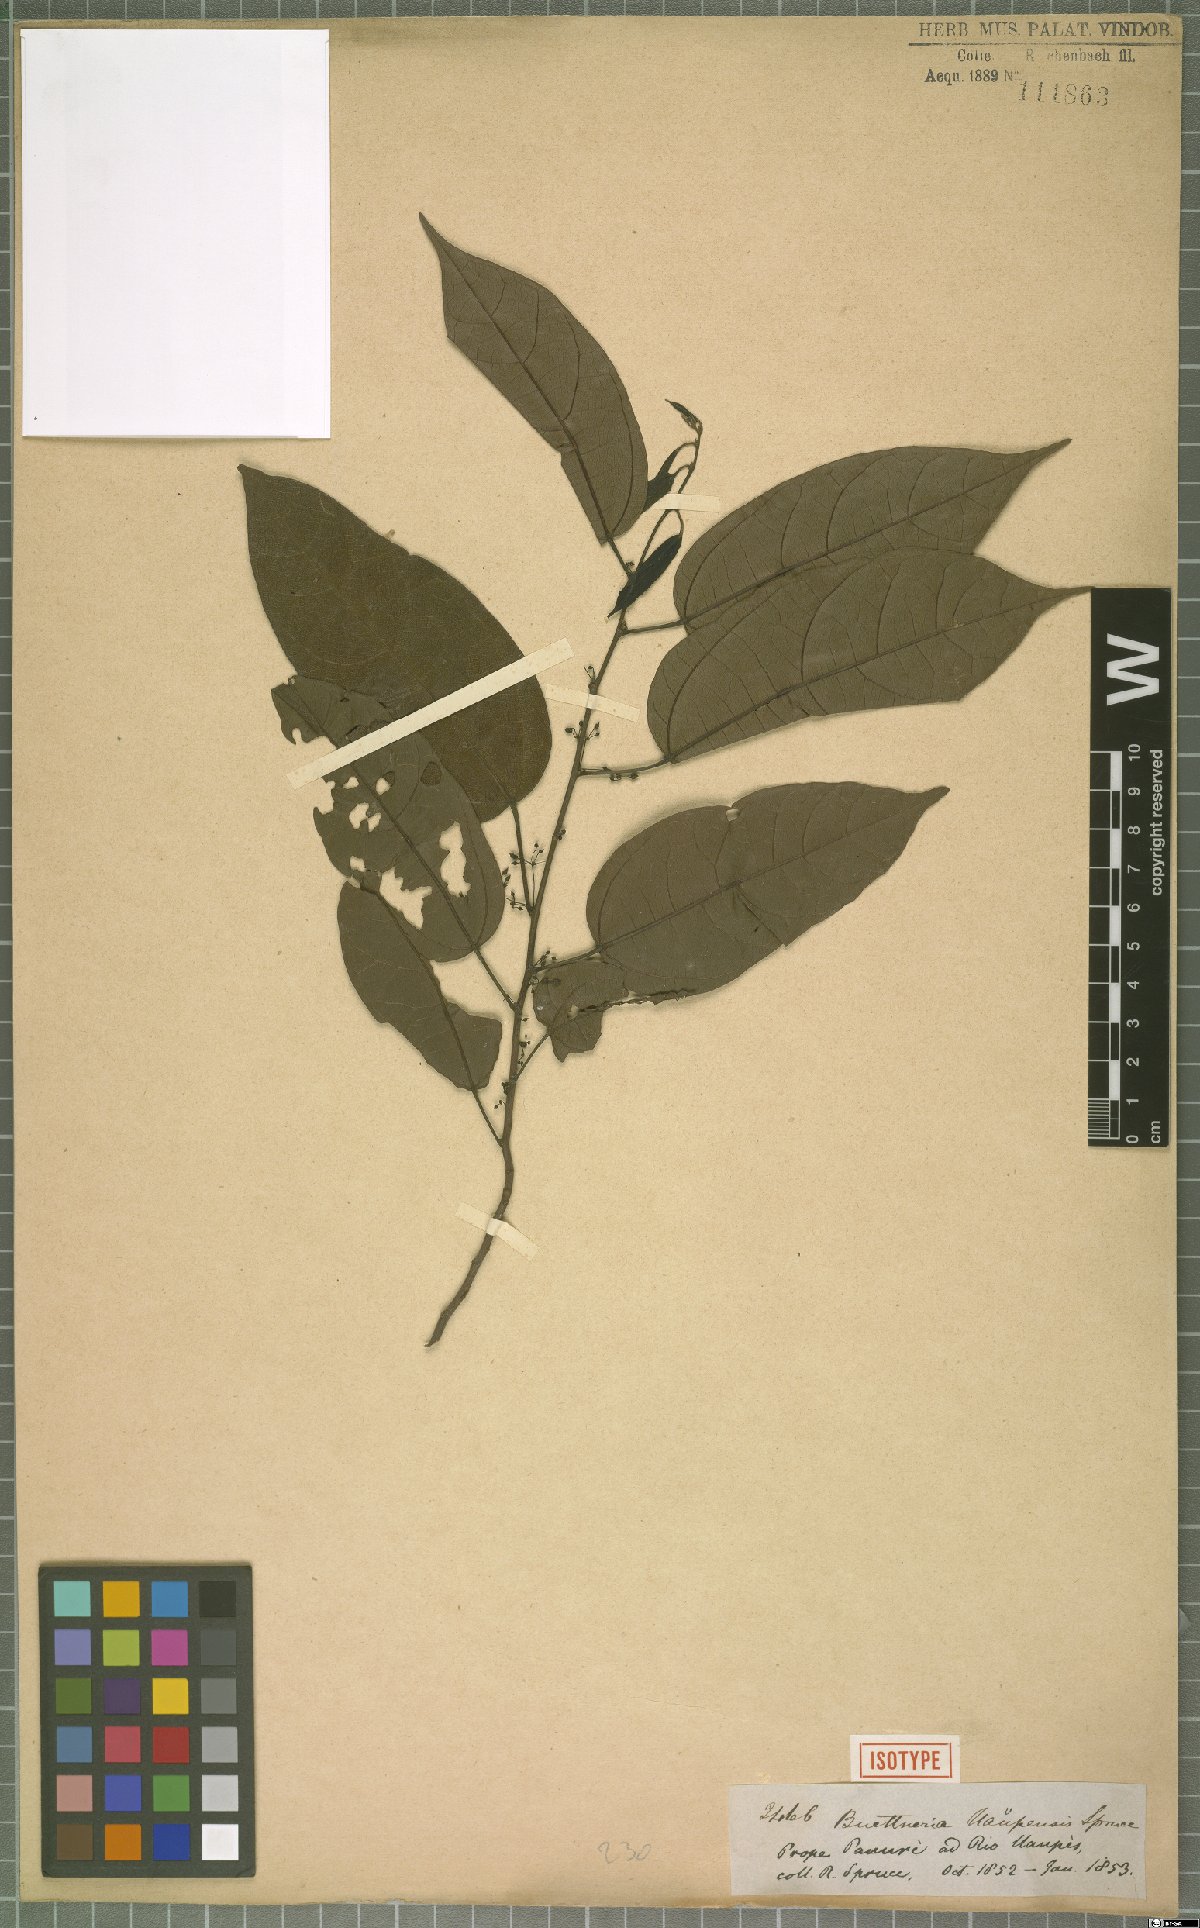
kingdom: Plantae
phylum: Tracheophyta
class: Magnoliopsida
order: Malvales
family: Malvaceae
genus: Byttneria
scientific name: Byttneria uaupensis
